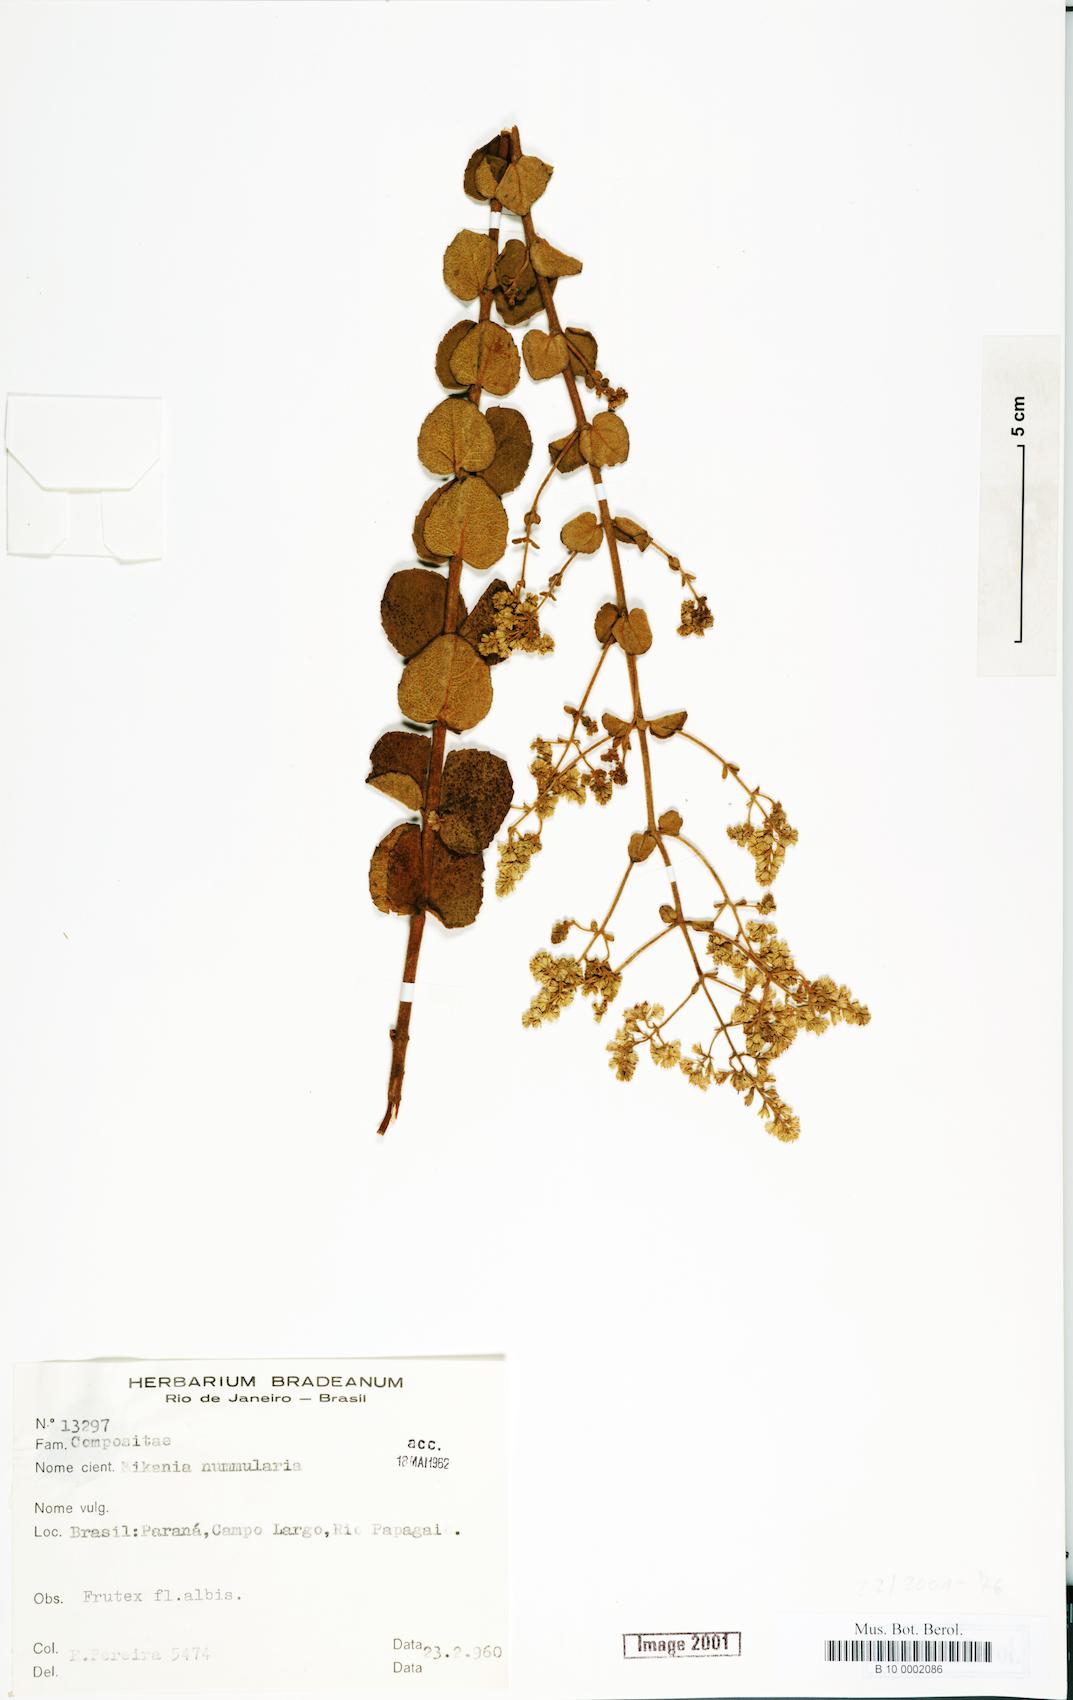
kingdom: Plantae
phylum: Tracheophyta
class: Magnoliopsida
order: Asterales
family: Asteraceae
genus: Mikania
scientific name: Mikania nummularia
